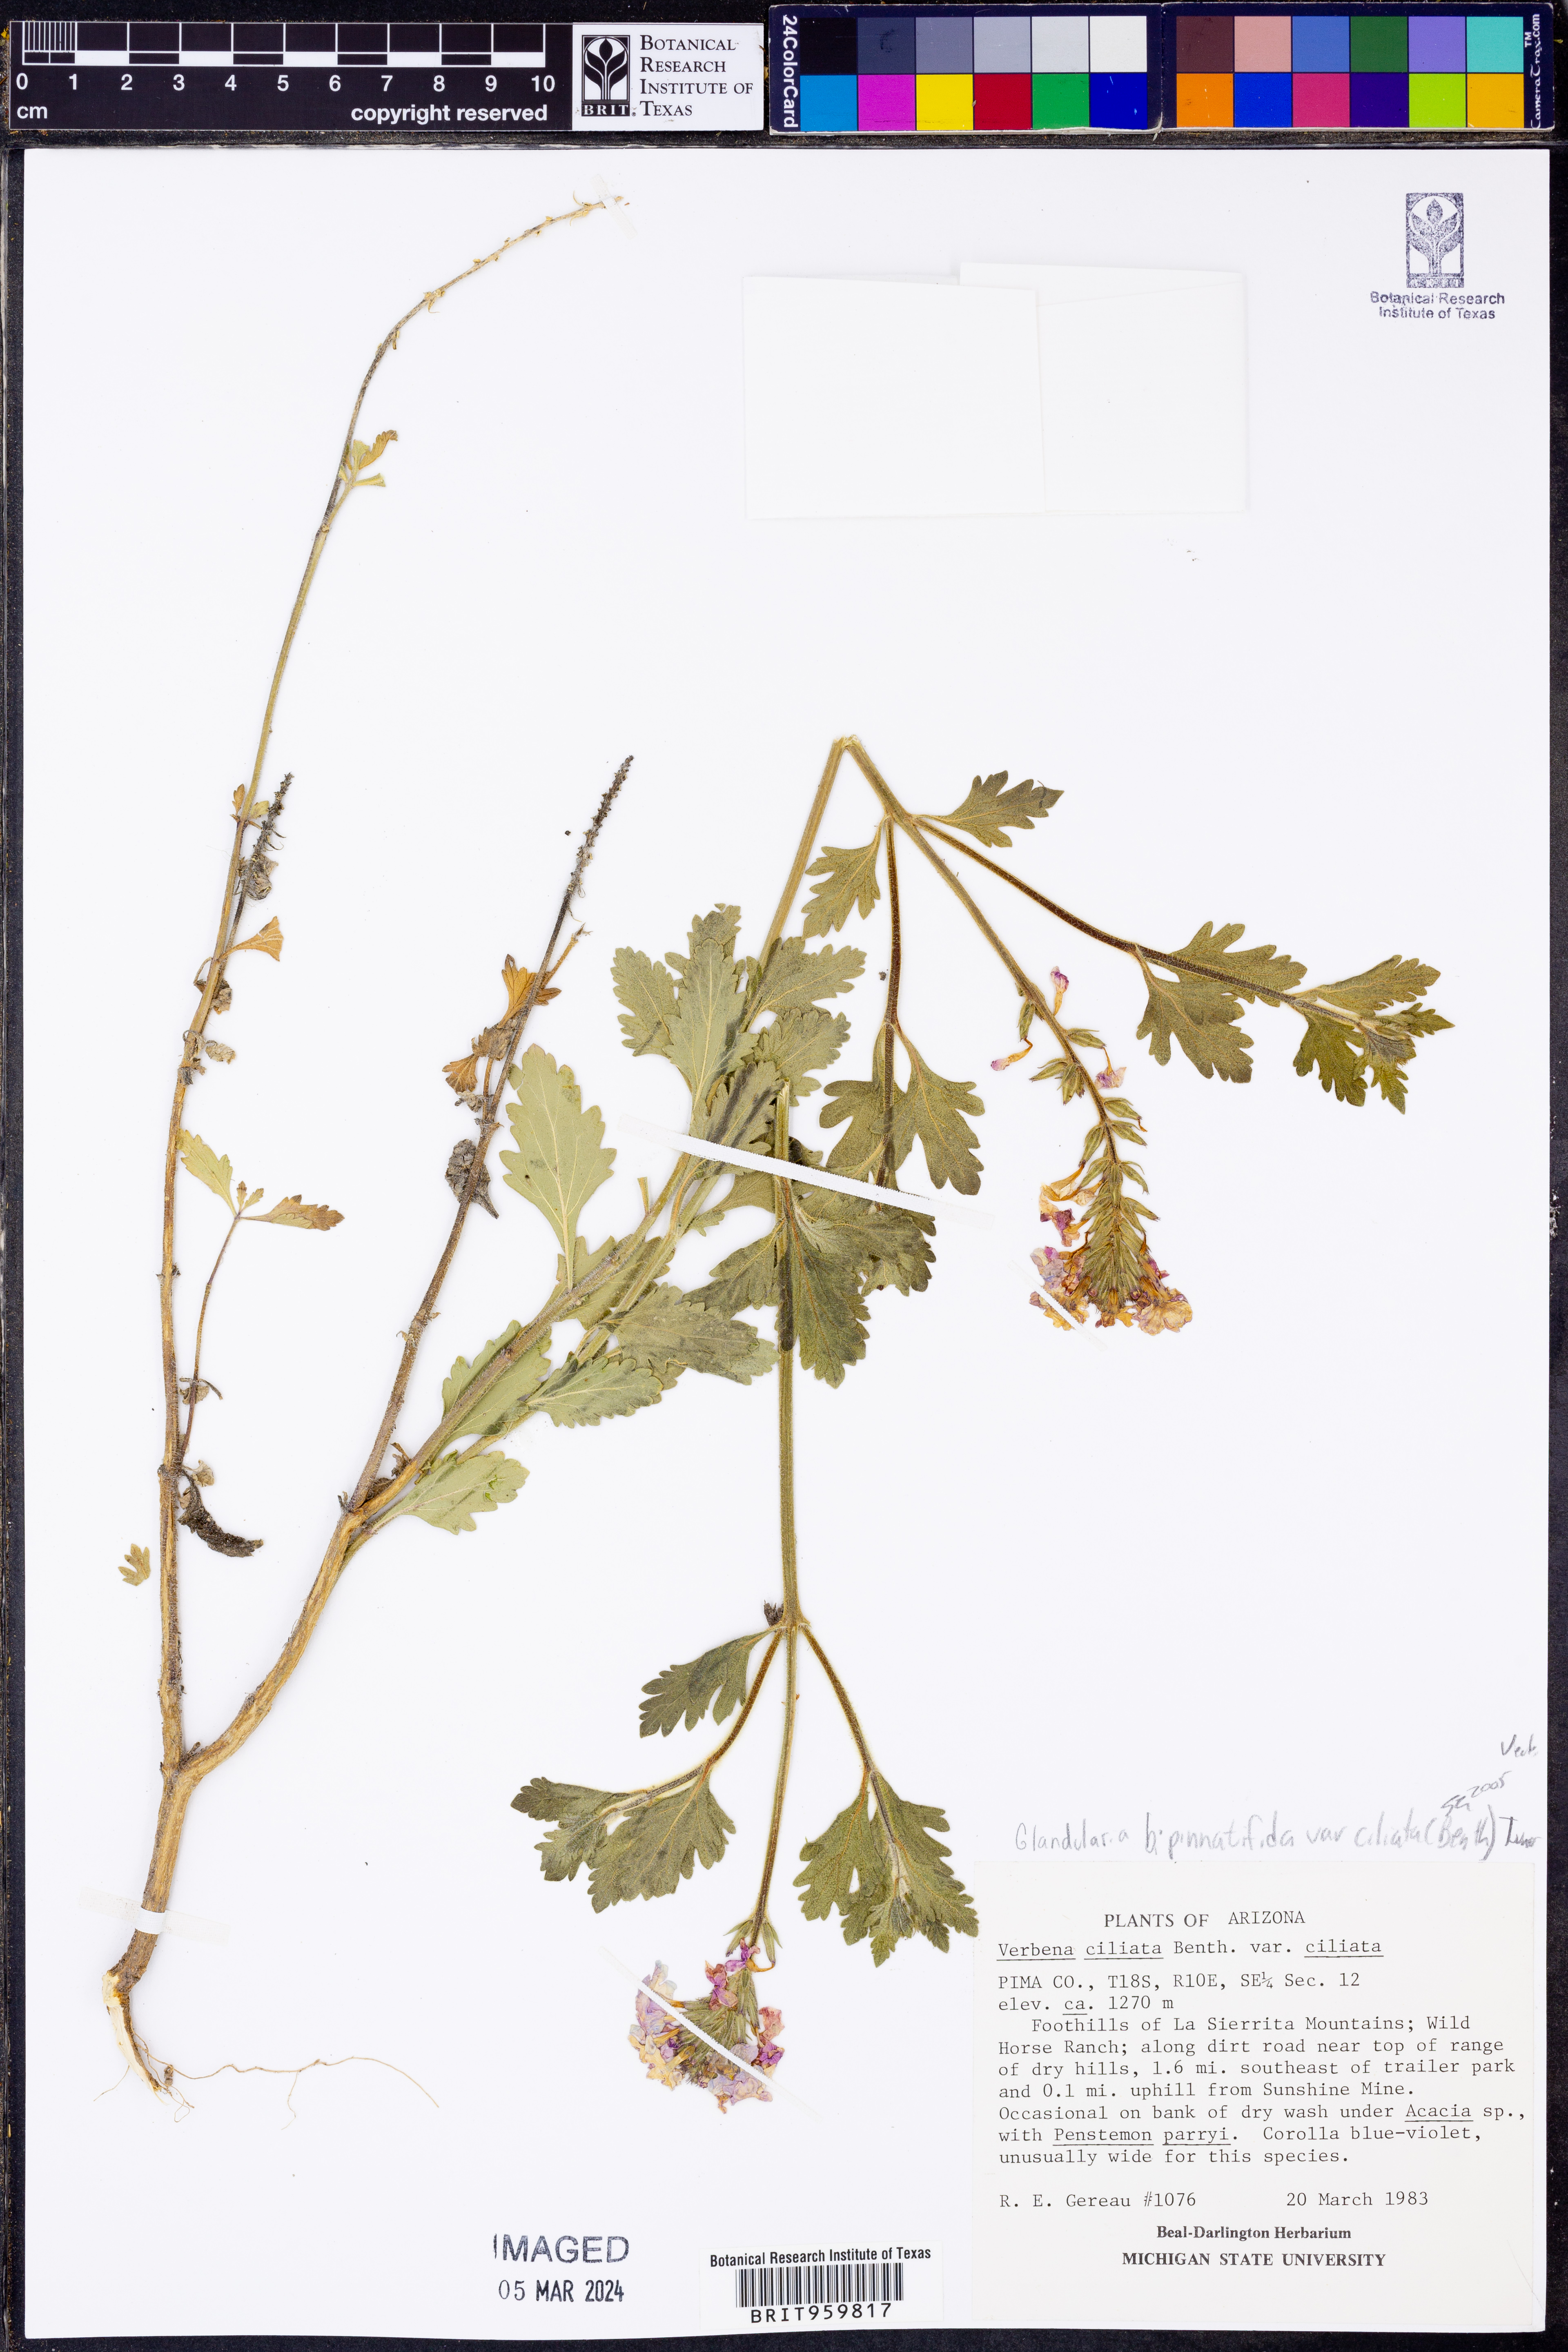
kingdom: Plantae
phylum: Tracheophyta
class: Magnoliopsida
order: Lamiales
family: Verbenaceae
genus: Verbena
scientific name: Verbena gooddingii
